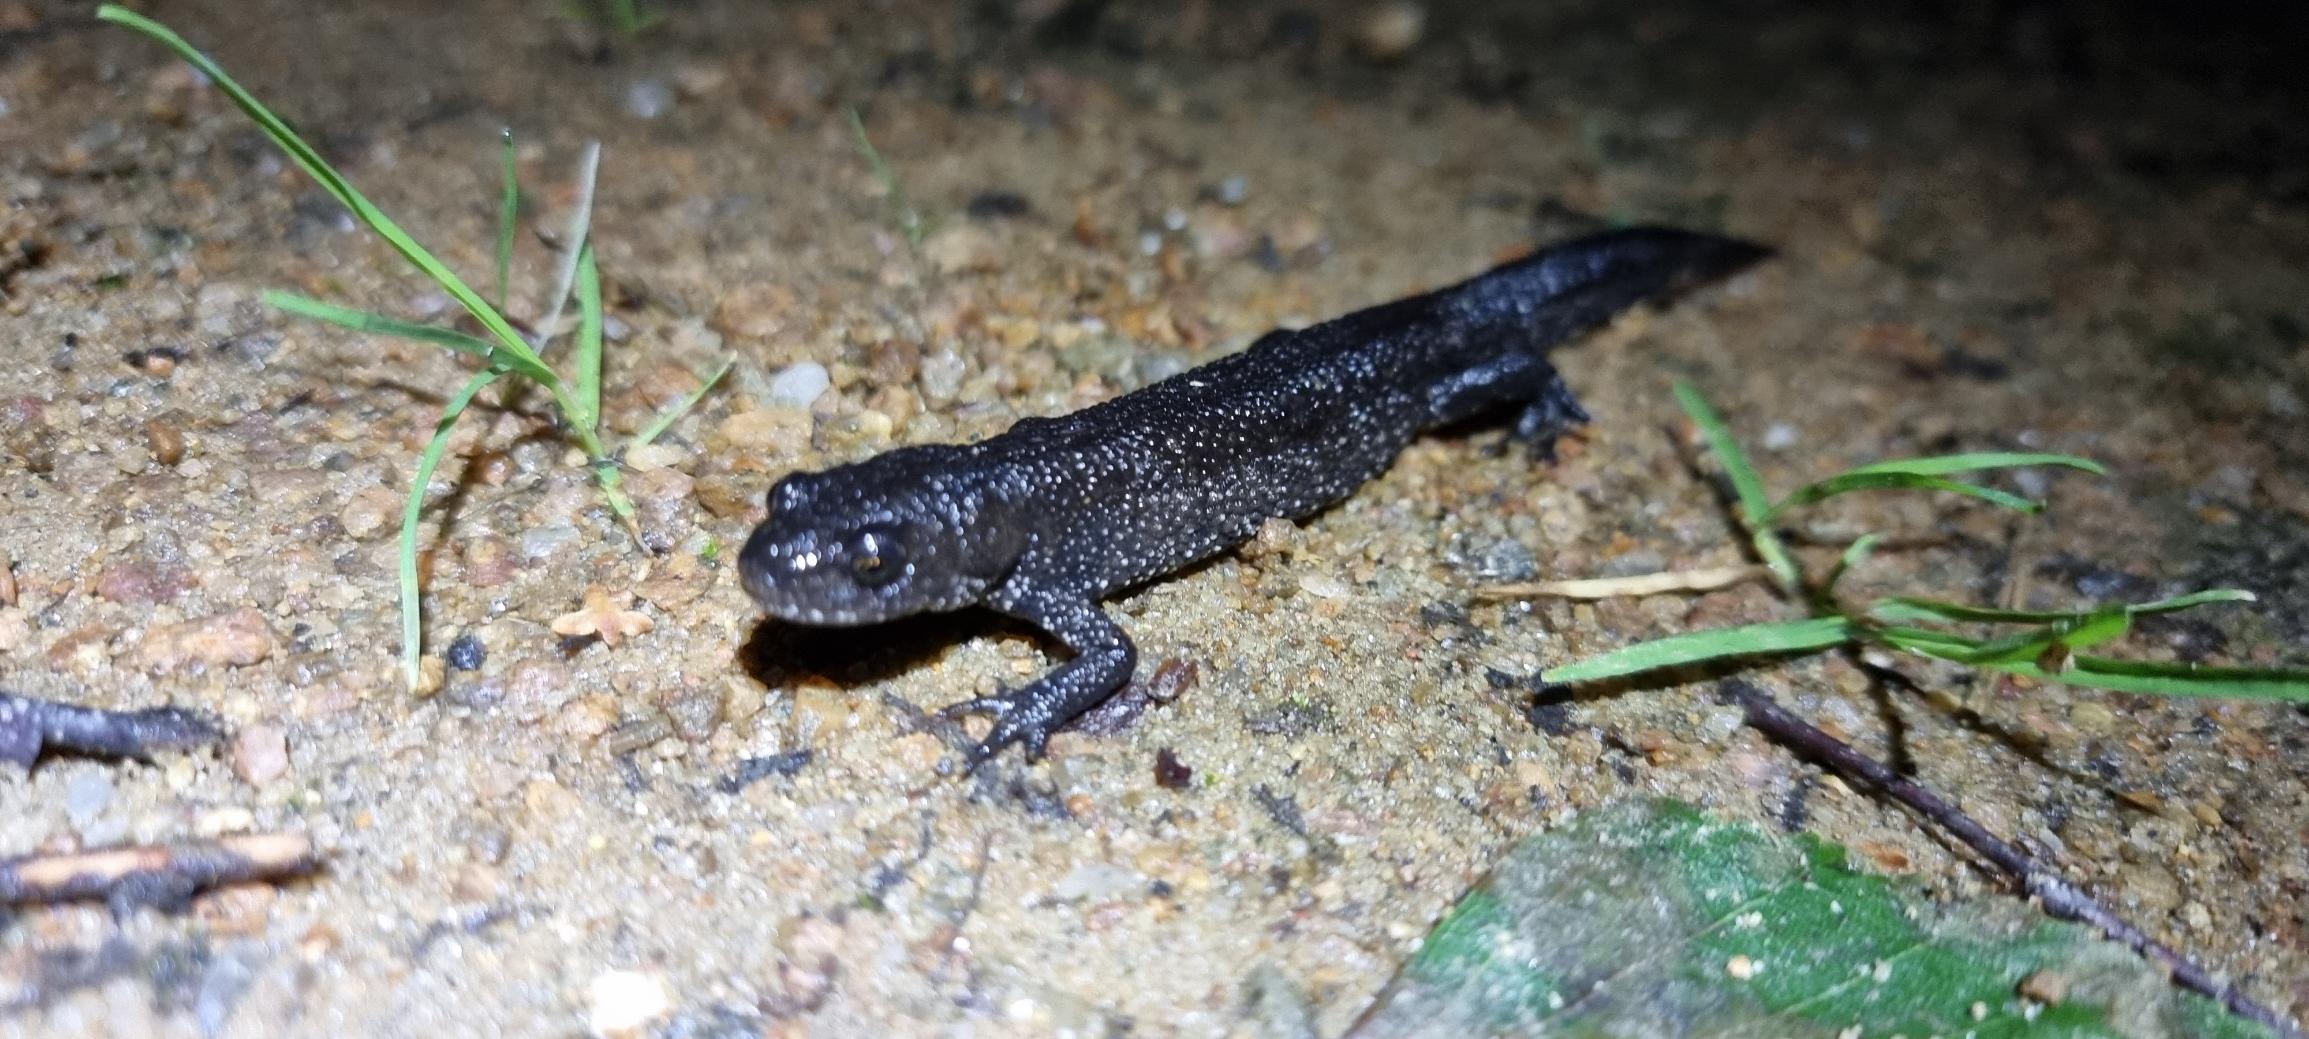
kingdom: Animalia
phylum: Chordata
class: Amphibia
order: Caudata
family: Salamandridae
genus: Triturus
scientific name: Triturus cristatus
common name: Stor vandsalamander
